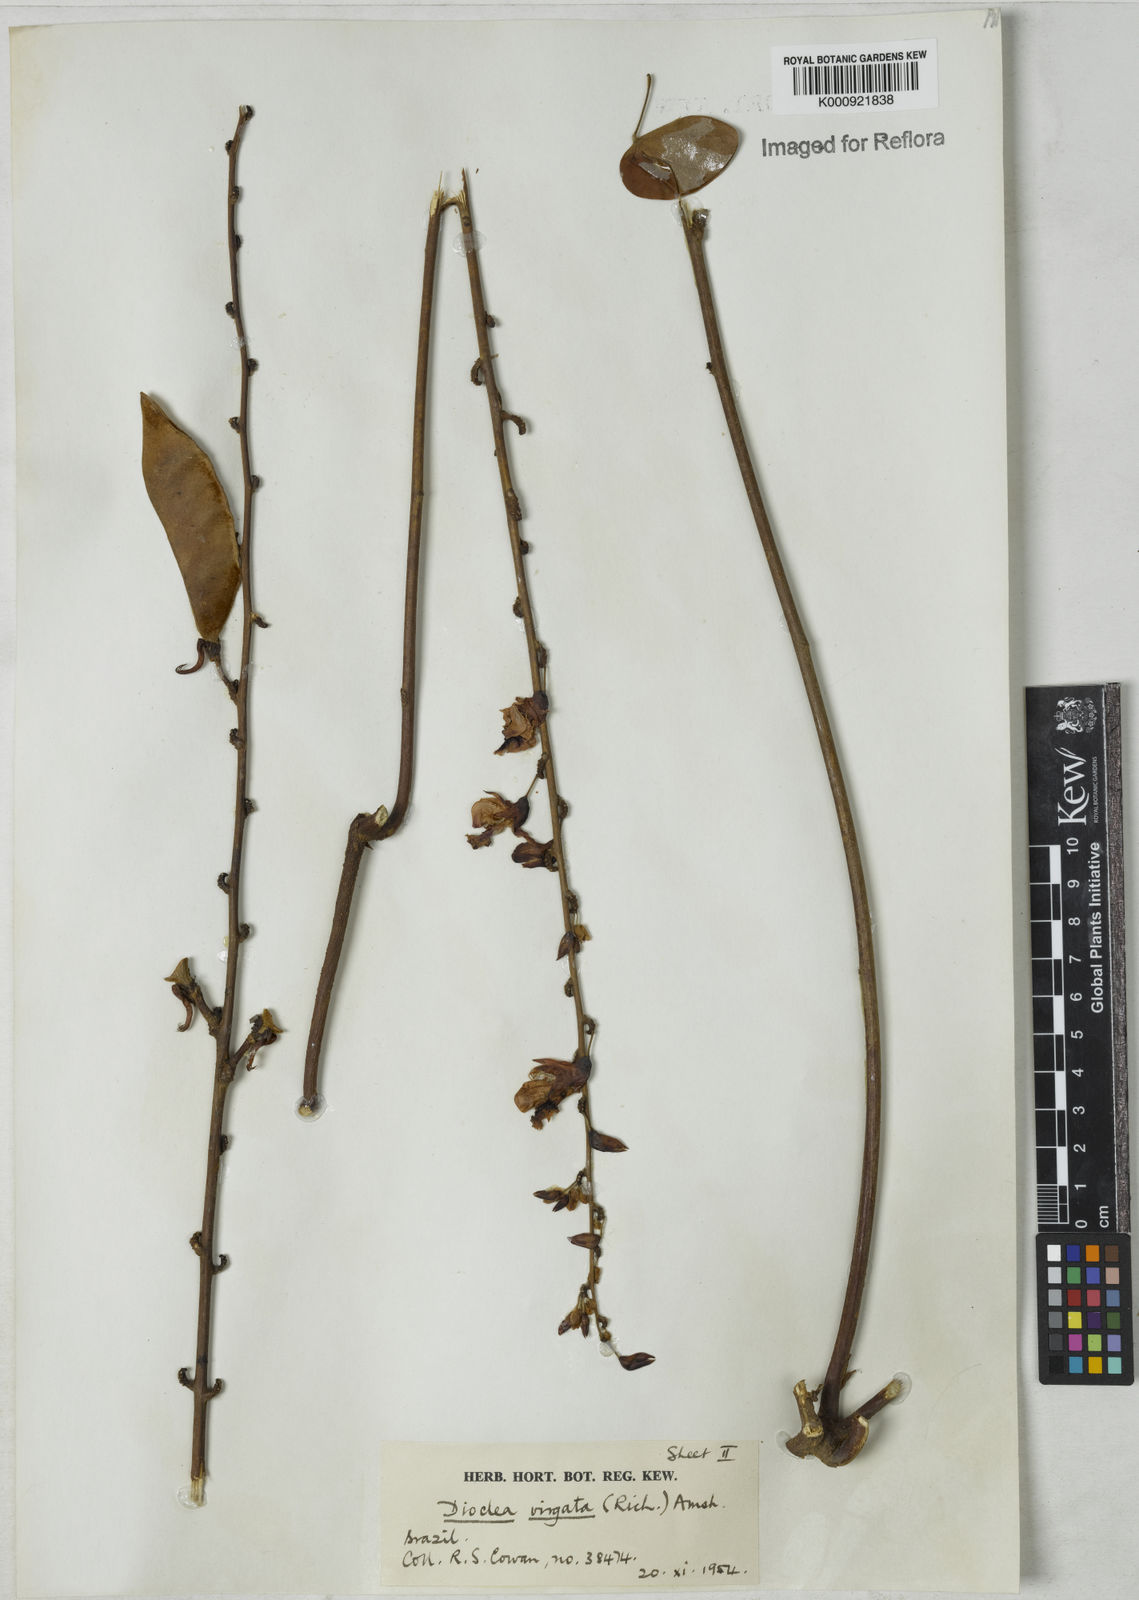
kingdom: Plantae
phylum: Tracheophyta
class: Magnoliopsida
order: Fabales
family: Fabaceae
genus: Dioclea
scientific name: Dioclea virgata
